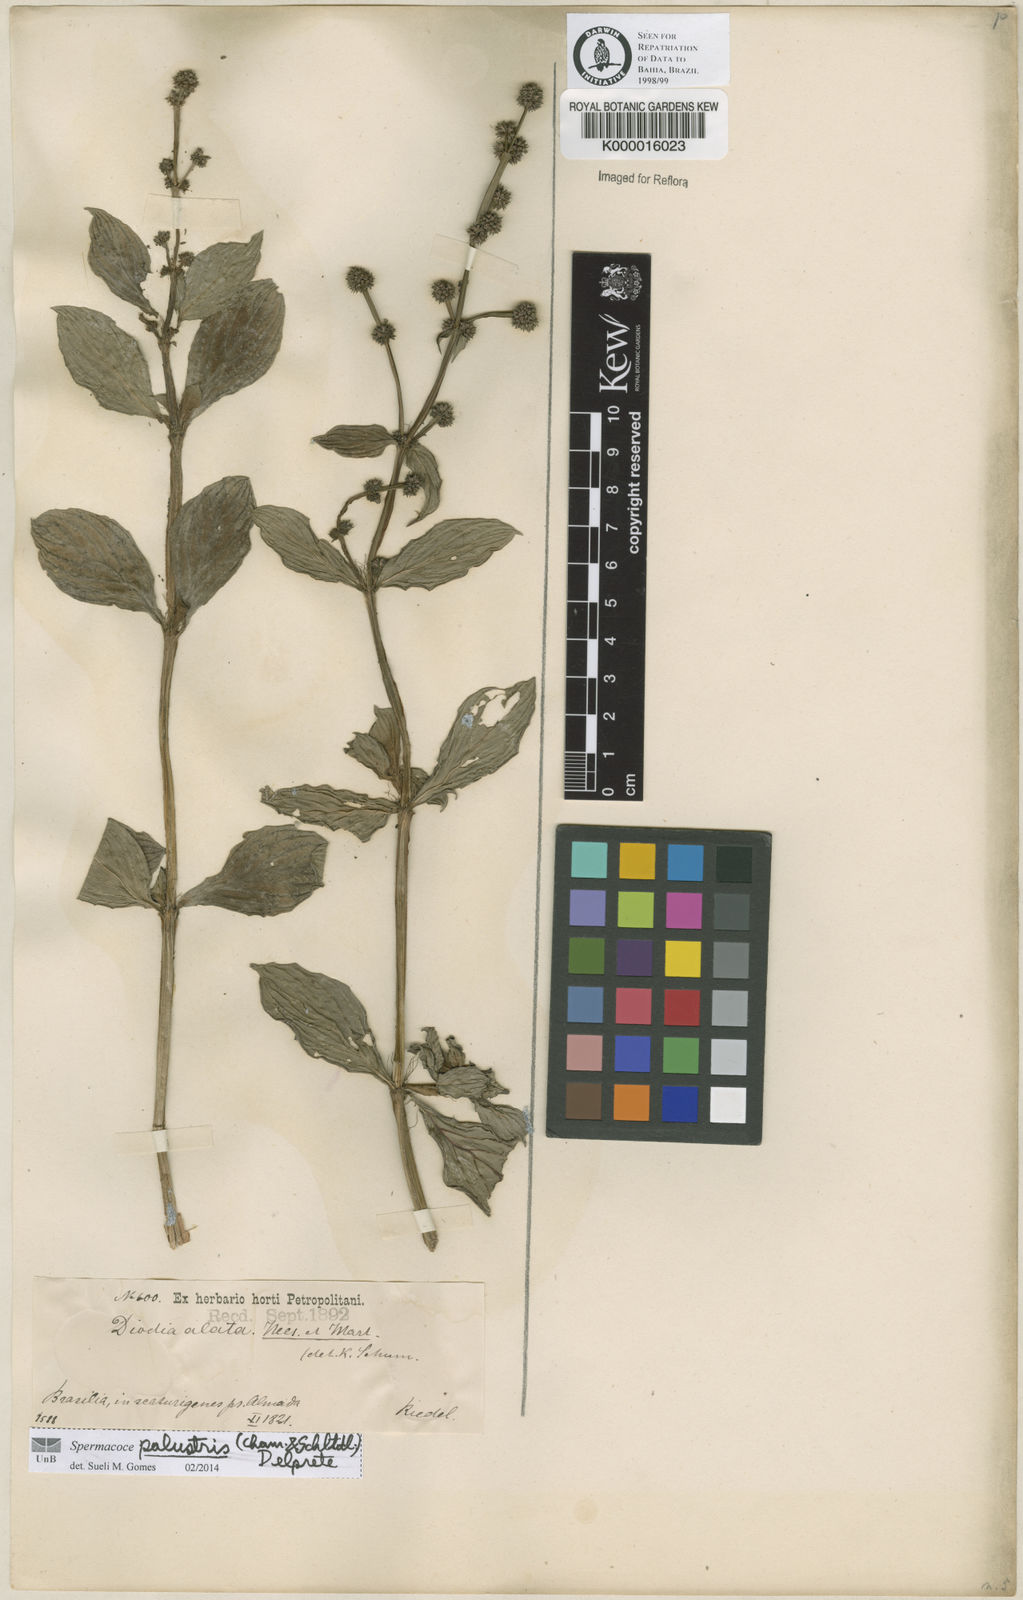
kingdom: Plantae
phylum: Tracheophyta
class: Magnoliopsida
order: Gentianales
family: Rubiaceae
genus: Galianthe
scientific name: Galianthe palustris
